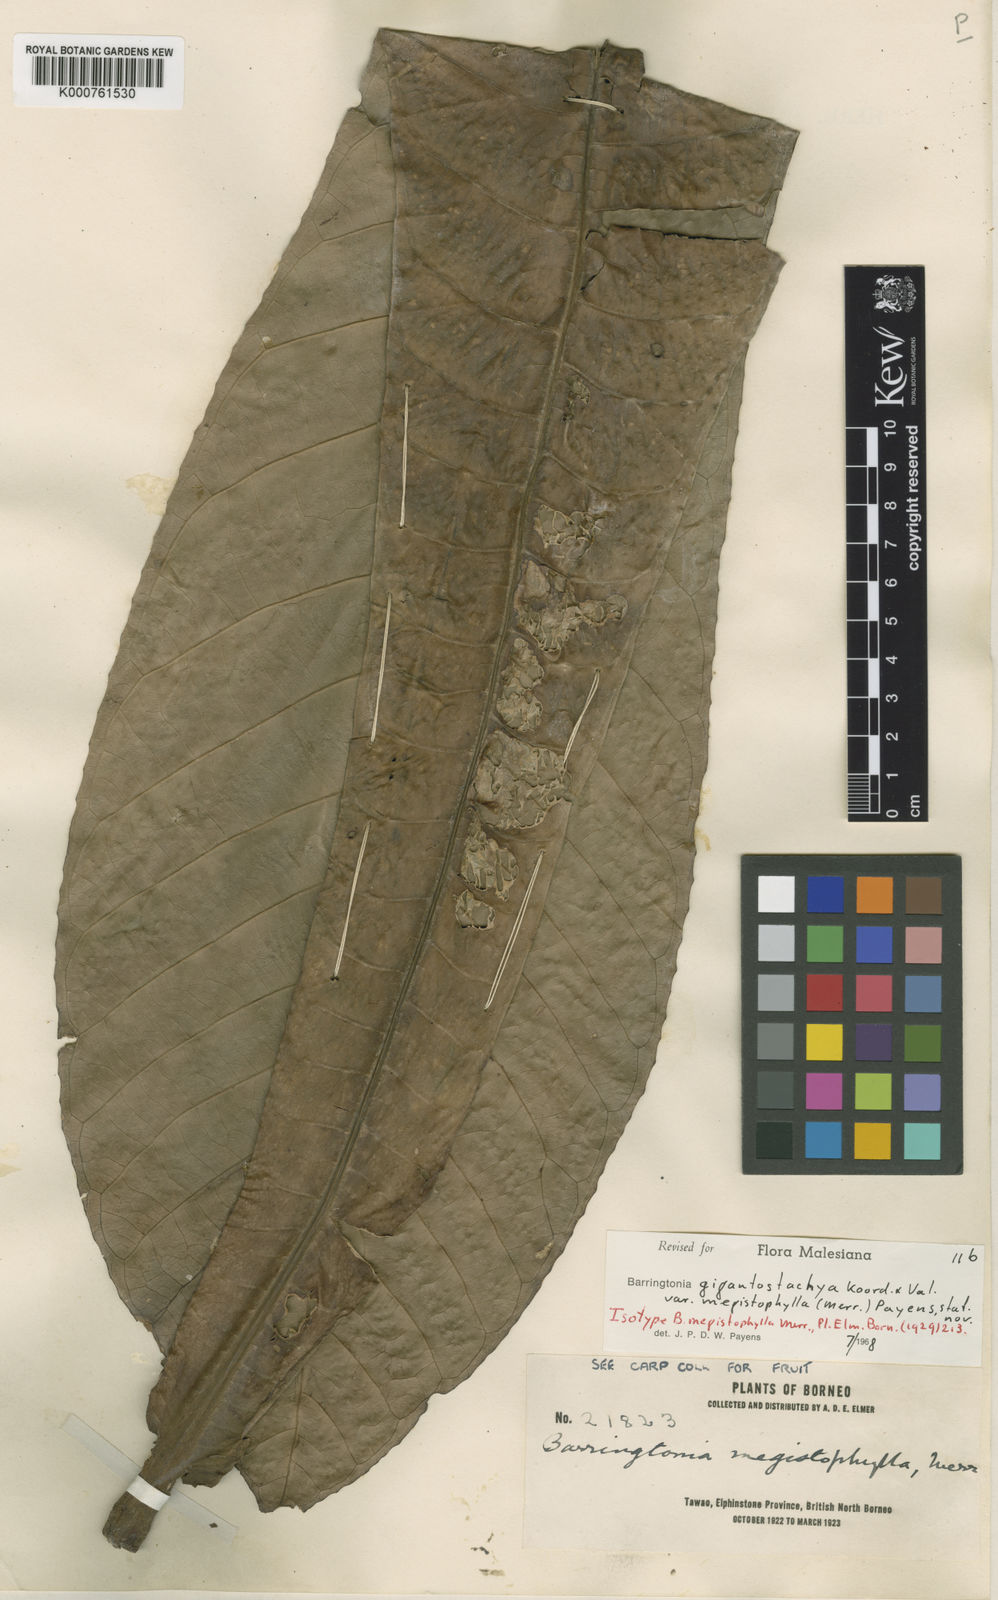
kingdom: Plantae
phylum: Tracheophyta
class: Magnoliopsida
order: Ericales
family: Lecythidaceae
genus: Barringtonia
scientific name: Barringtonia gigantostachya
